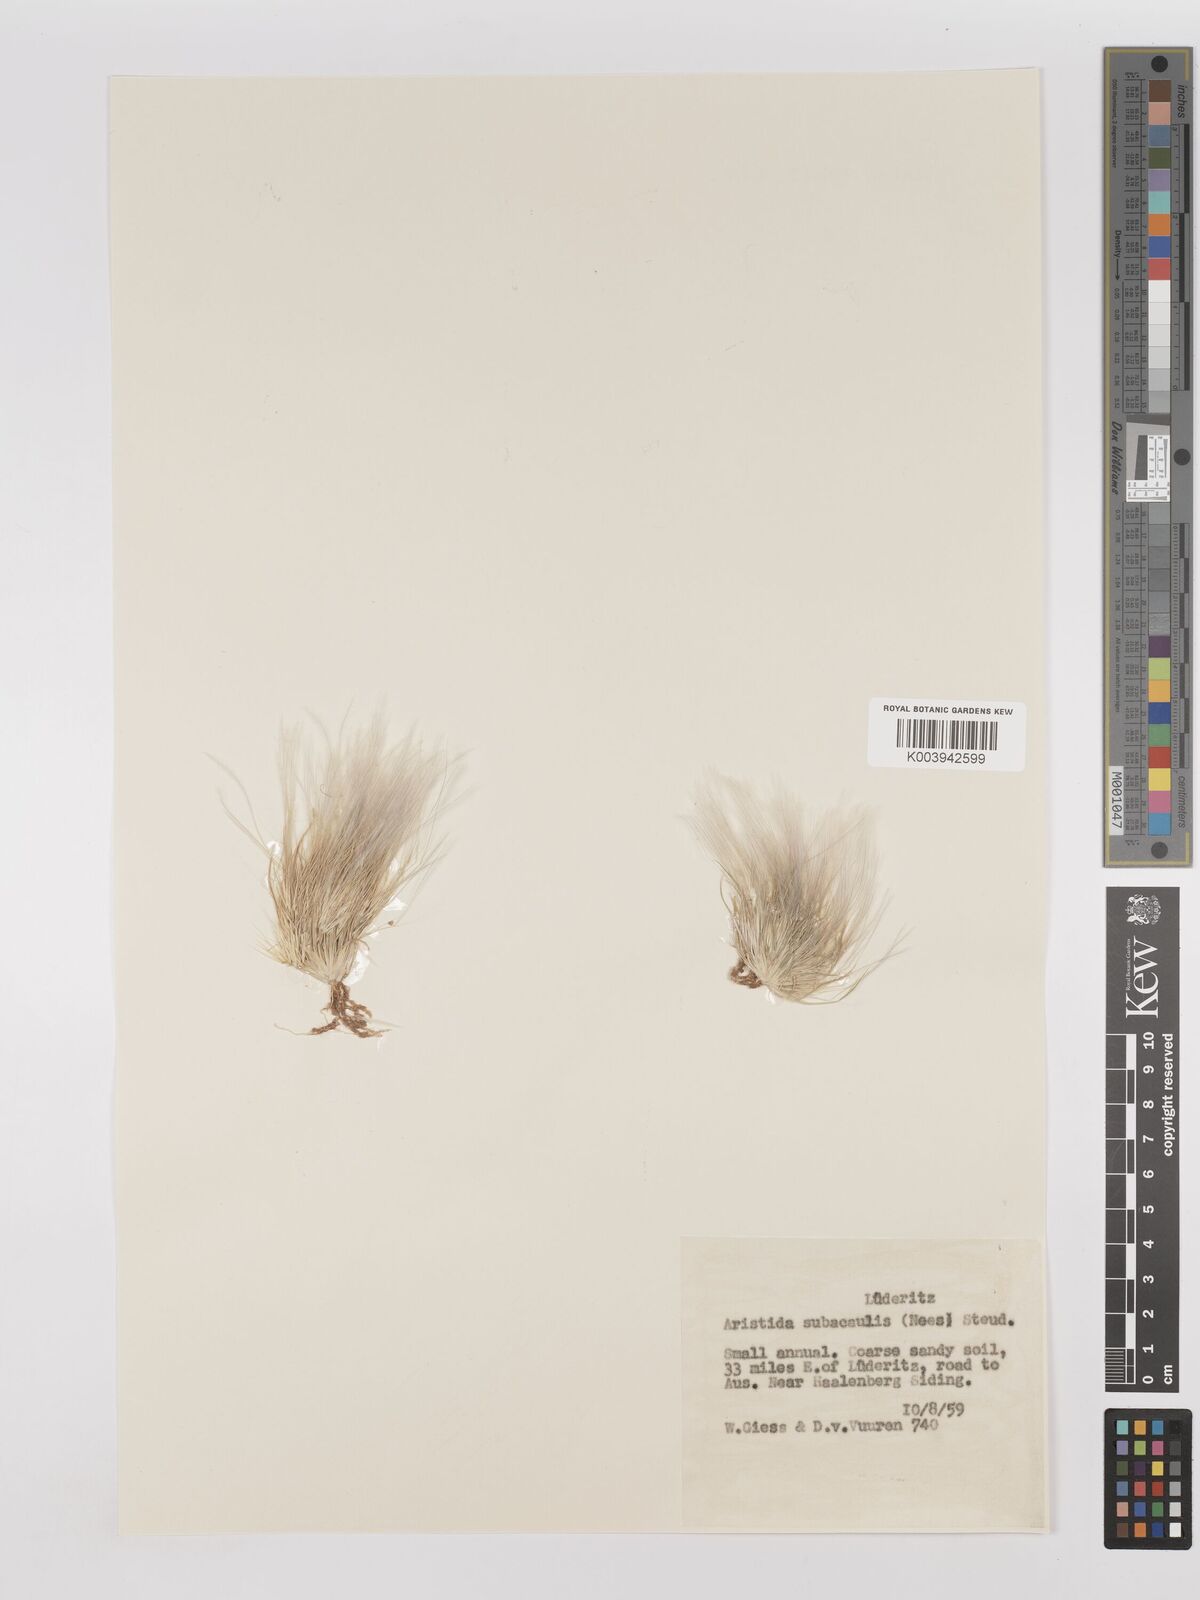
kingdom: Plantae
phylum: Tracheophyta
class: Liliopsida
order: Poales
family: Poaceae
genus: Stipagrostis
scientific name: Stipagrostis subacaulis
